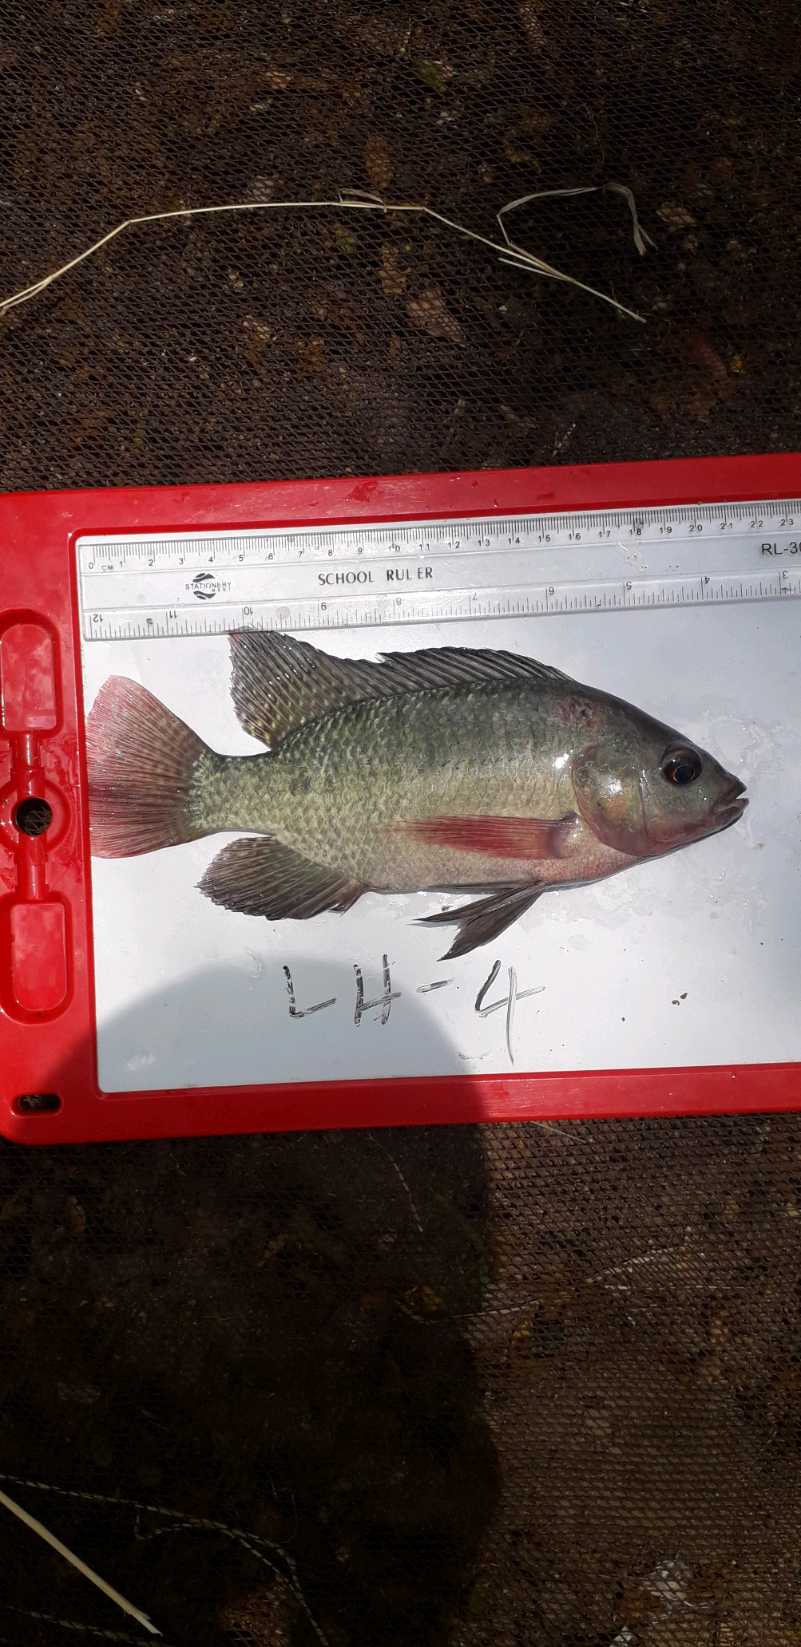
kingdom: Animalia
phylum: Chordata
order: Perciformes
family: Cichlidae
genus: Oreochromis
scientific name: Oreochromis niloticus
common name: Nile tilapia
